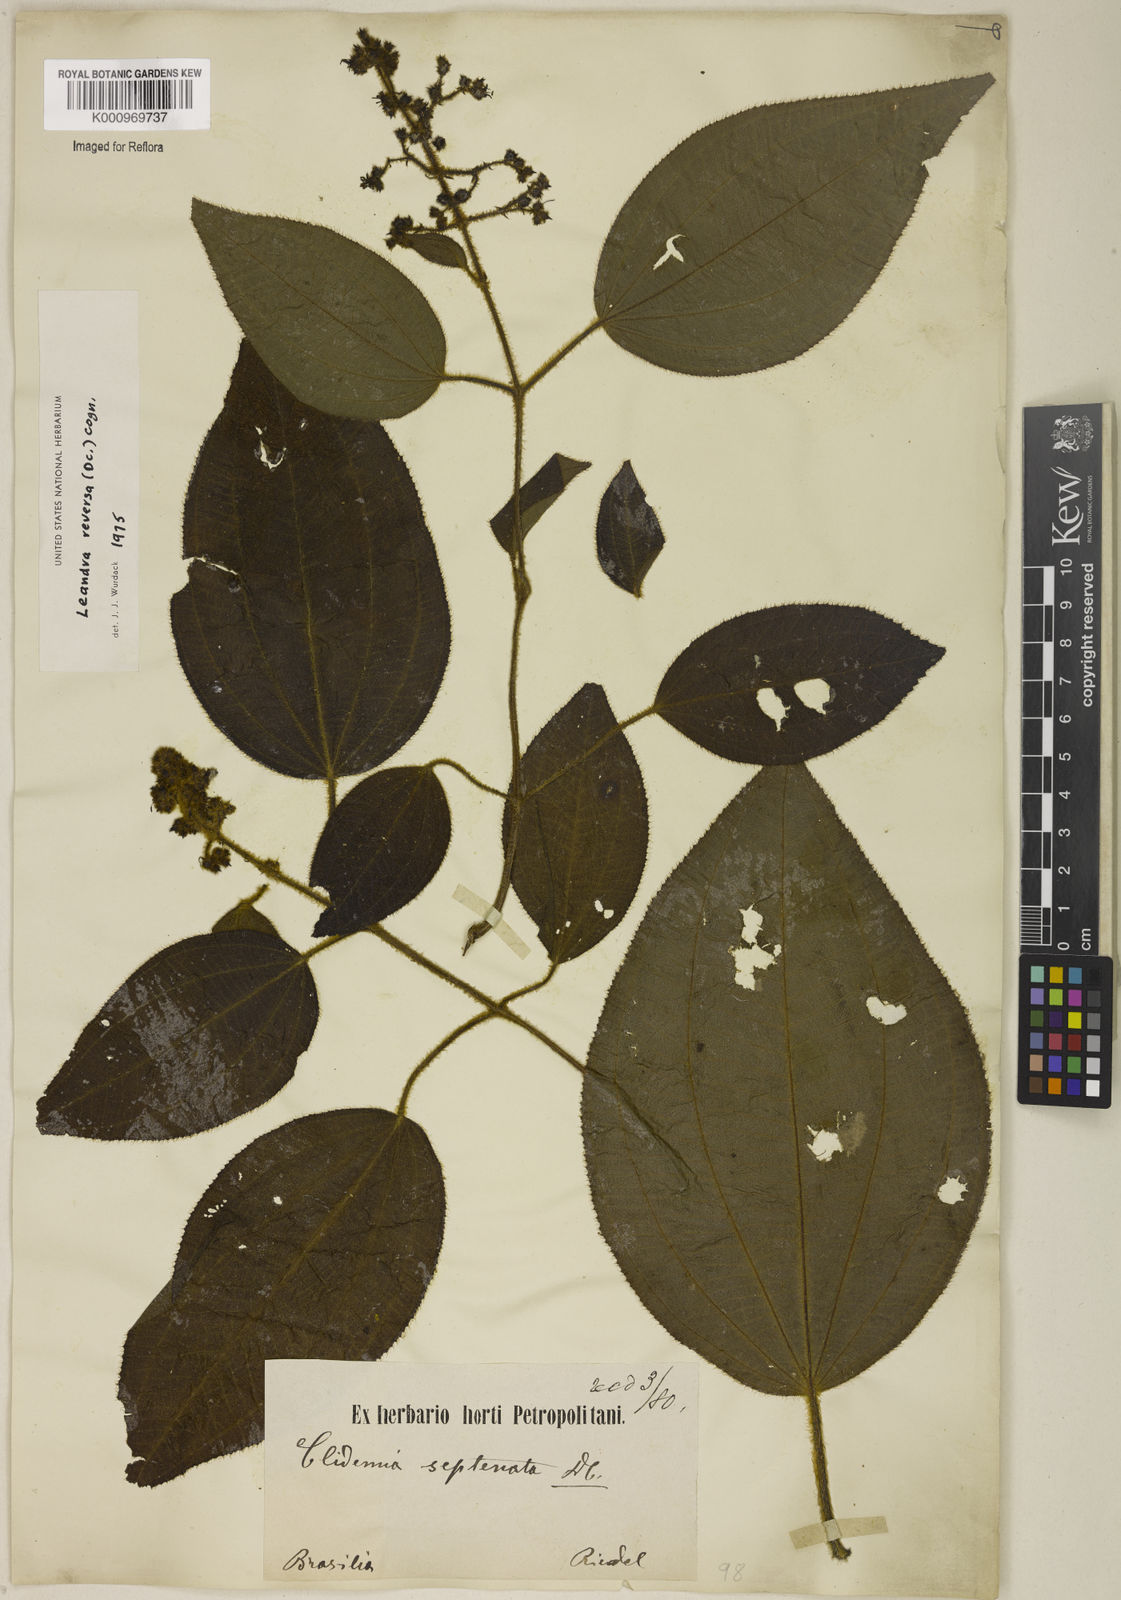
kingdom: Plantae
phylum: Tracheophyta
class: Magnoliopsida
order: Myrtales
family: Melastomataceae
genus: Miconia
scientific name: Miconia reversa
